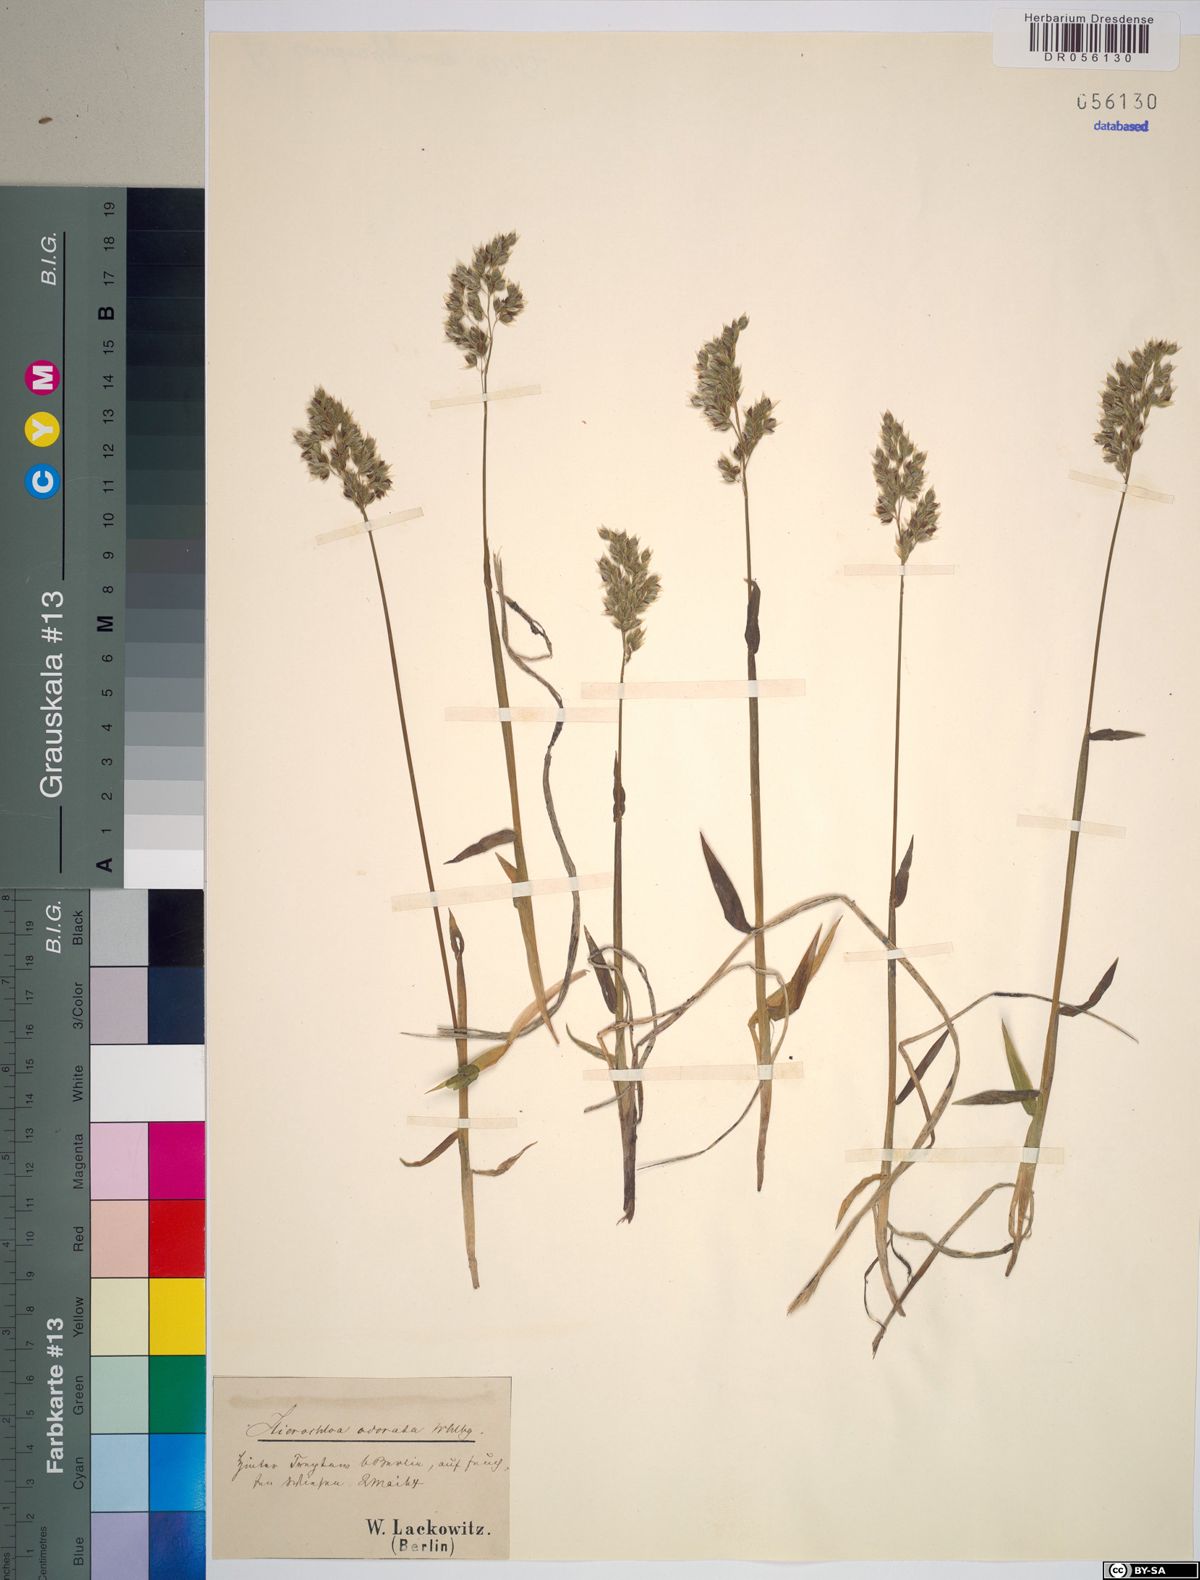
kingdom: Plantae
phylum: Tracheophyta
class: Liliopsida
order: Poales
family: Poaceae
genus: Anthoxanthum
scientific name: Anthoxanthum nitens
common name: Holy grass
